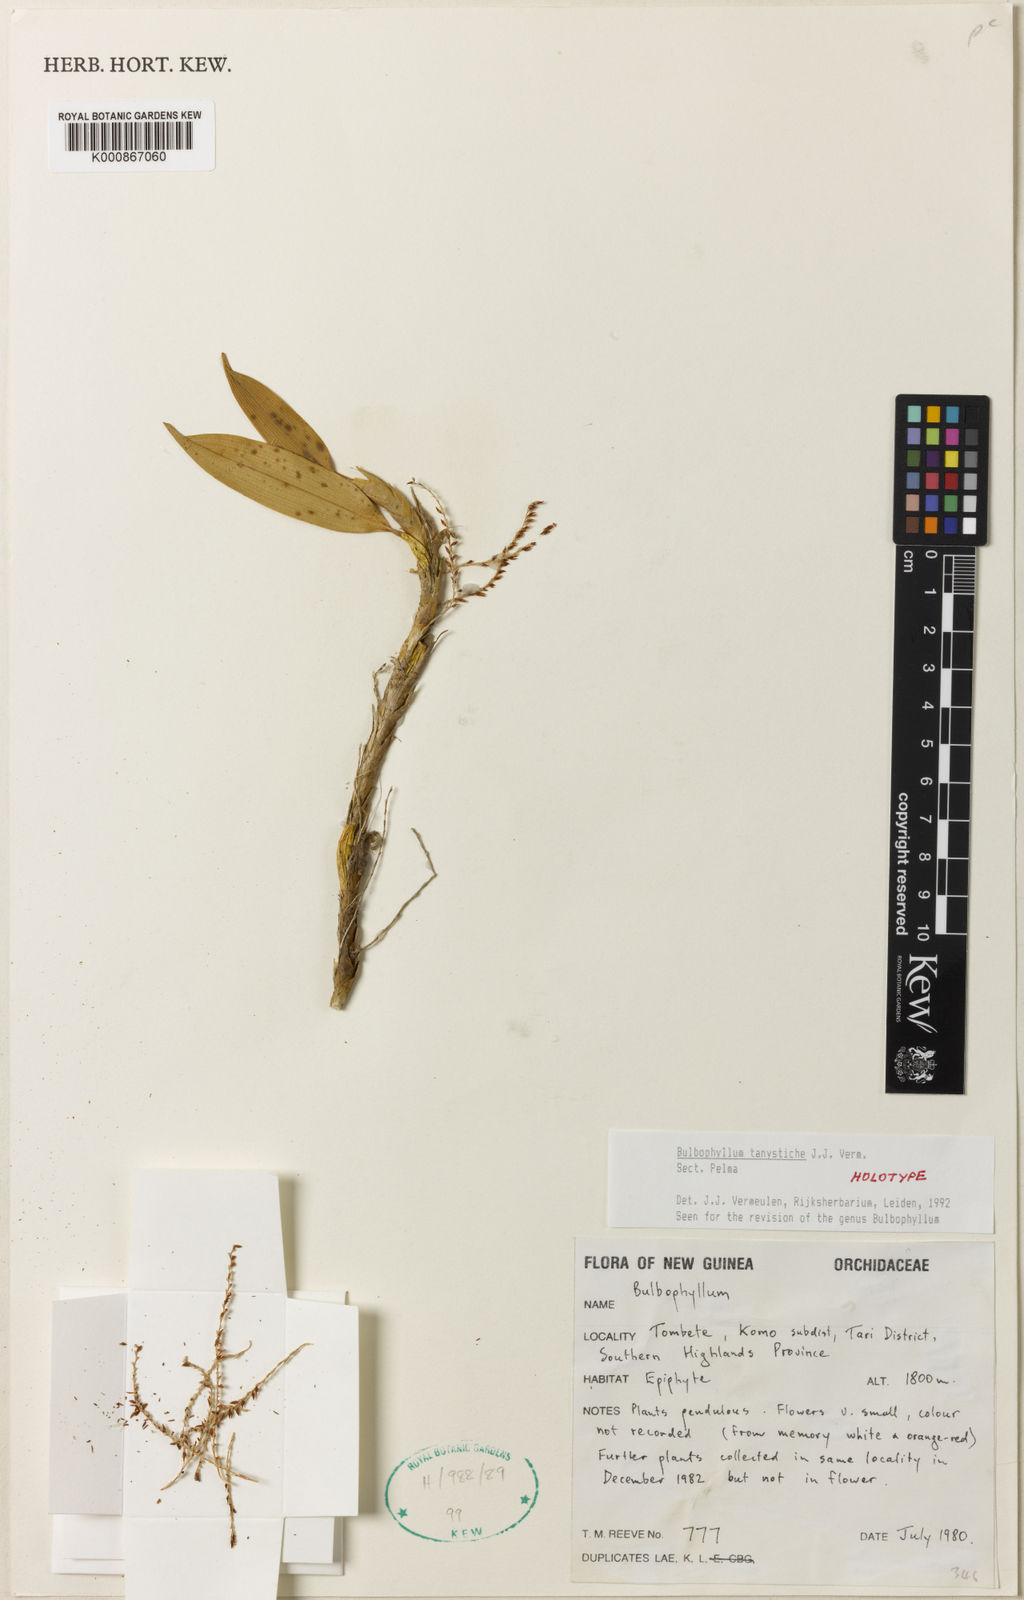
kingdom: Plantae
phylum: Tracheophyta
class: Liliopsida
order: Asparagales
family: Orchidaceae
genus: Bulbophyllum
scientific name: Bulbophyllum
